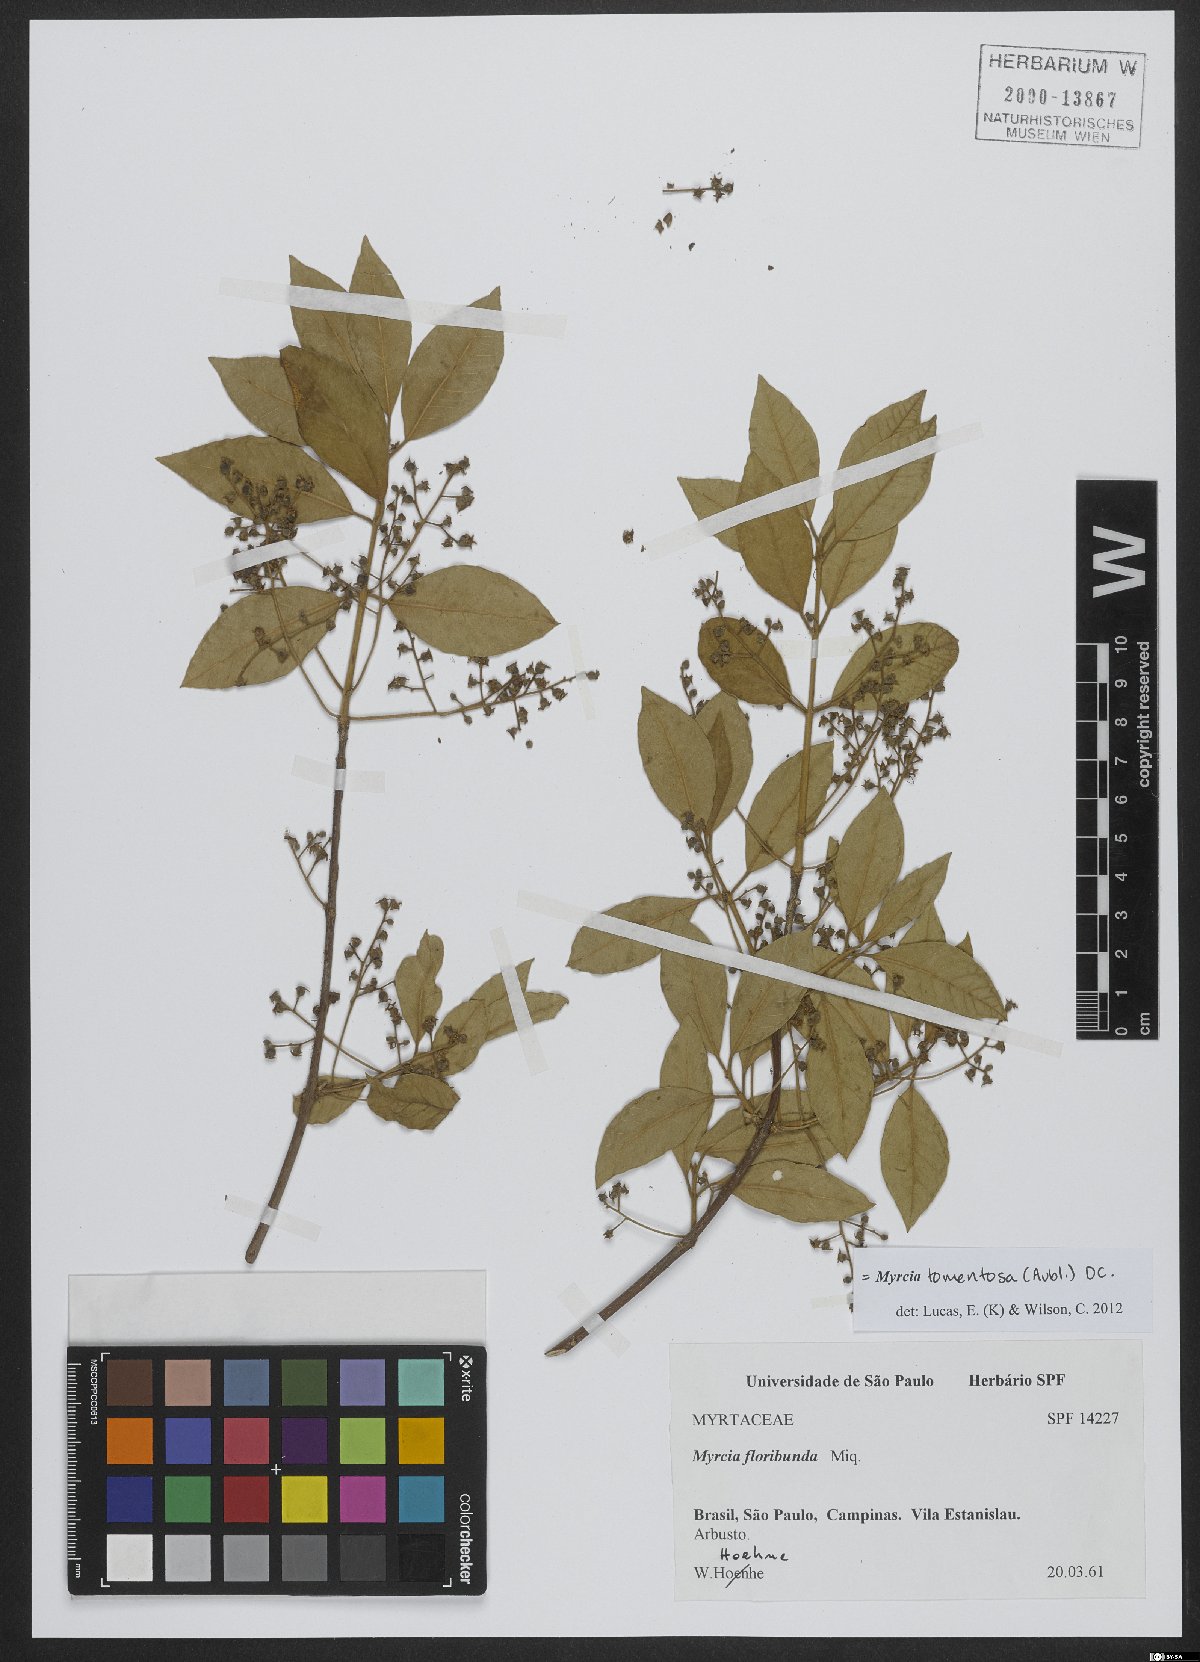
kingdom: Plantae
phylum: Tracheophyta
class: Magnoliopsida
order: Myrtales
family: Myrtaceae
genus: Myrcia
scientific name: Myrcia tomentosa
